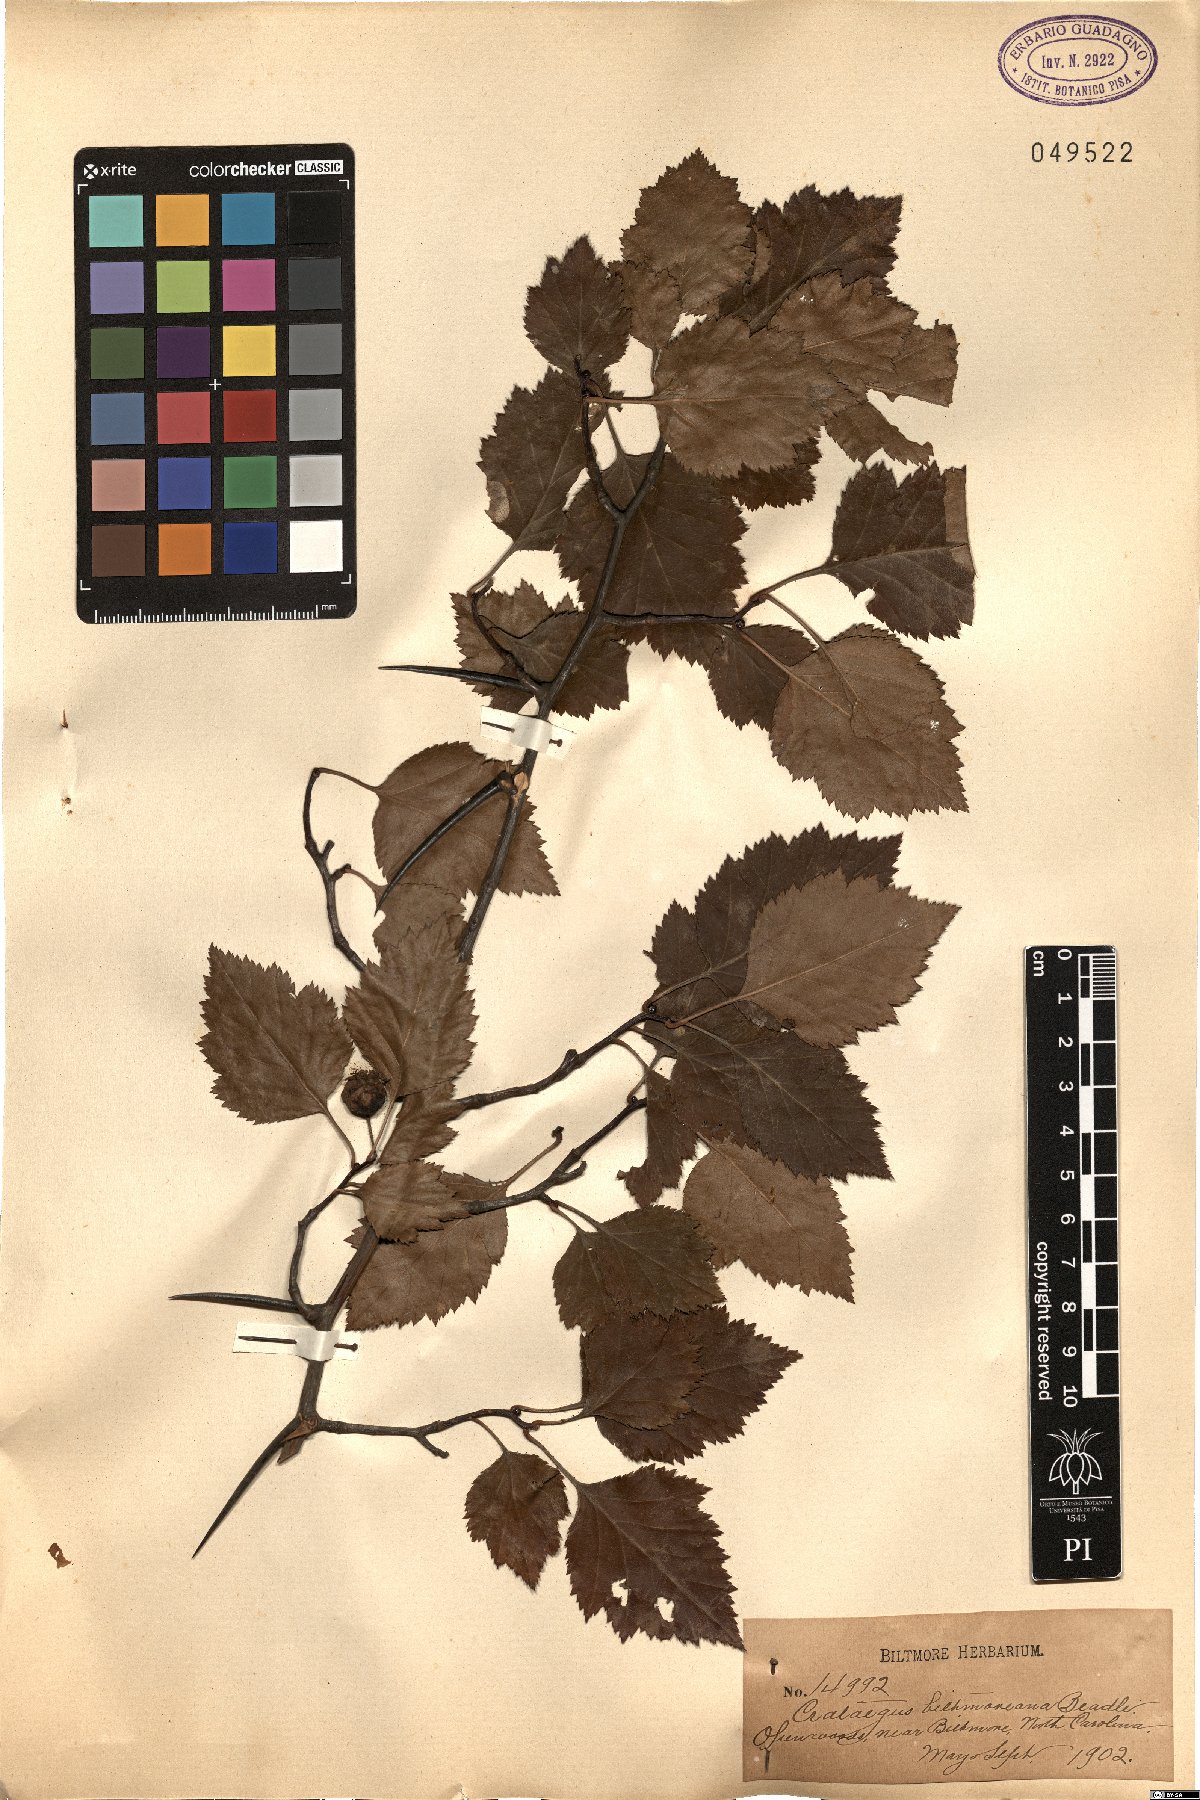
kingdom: Plantae
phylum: Tracheophyta
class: Magnoliopsida
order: Rosales
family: Rosaceae
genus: Crataegus
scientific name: Crataegus intricata
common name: Biltmore hawthorn
